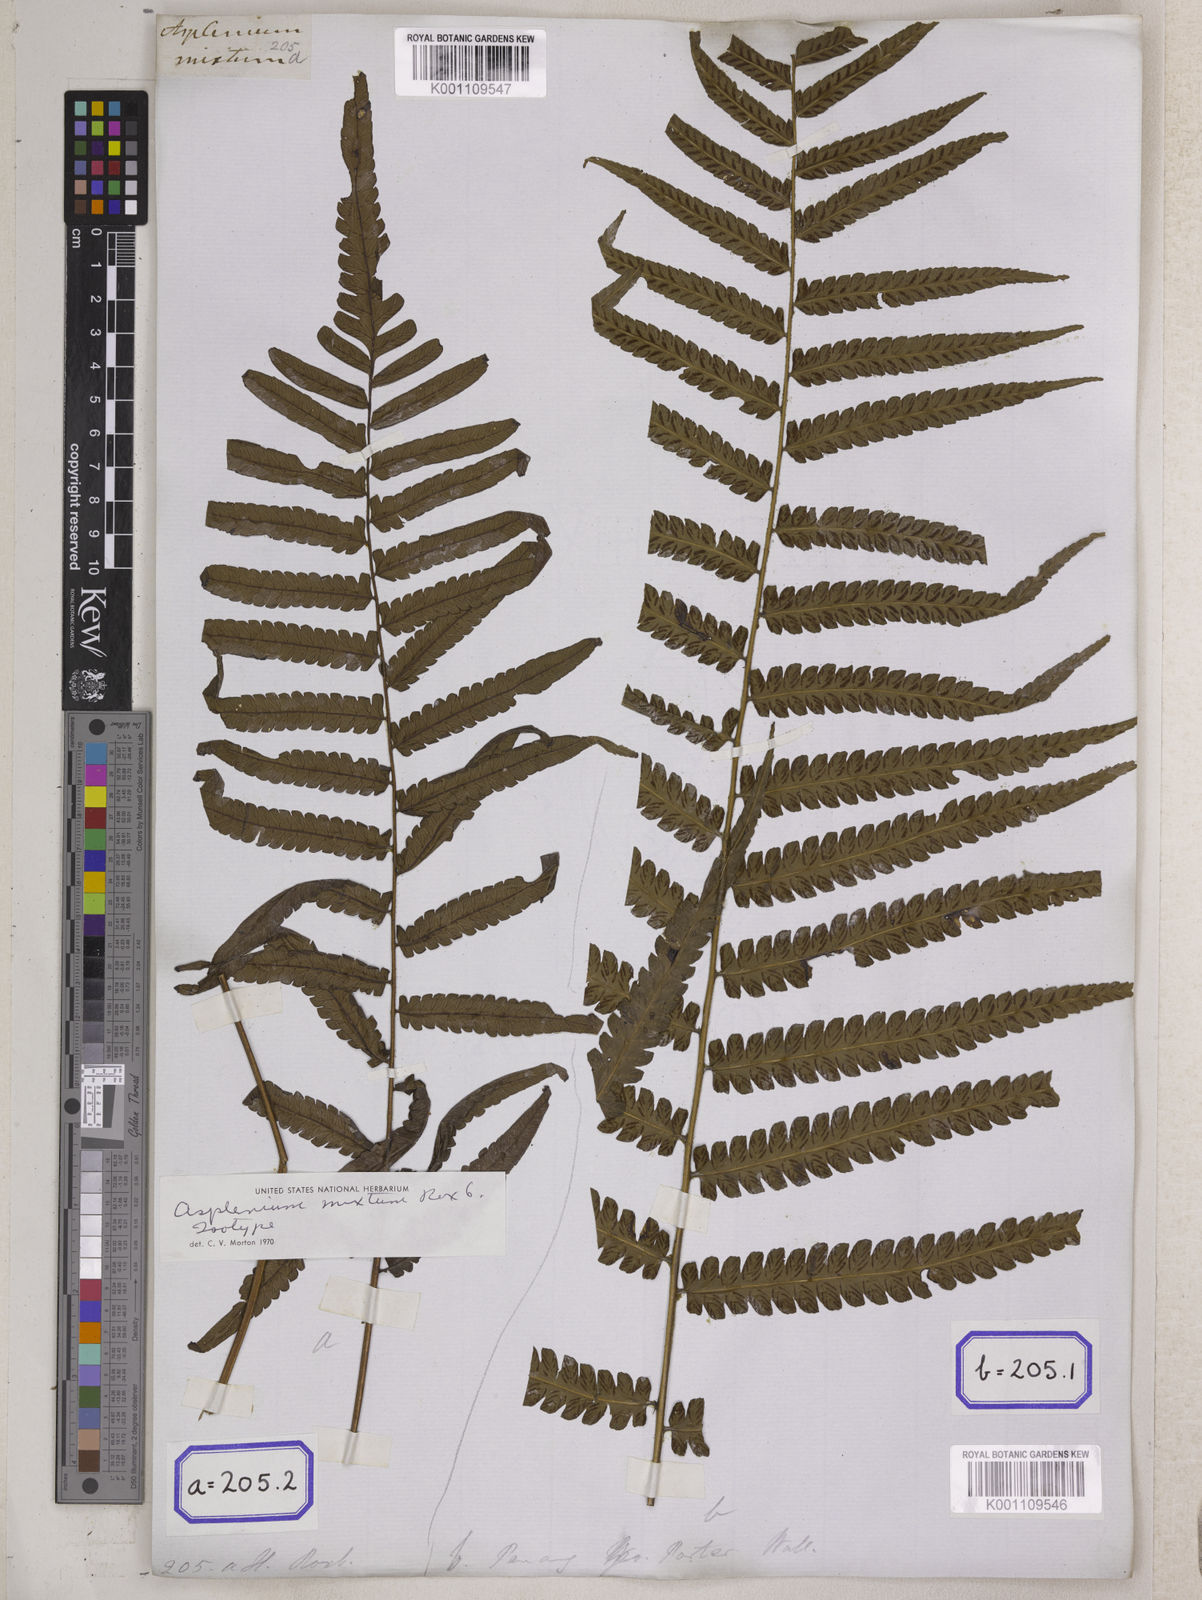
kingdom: Plantae
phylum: Tracheophyta
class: Polypodiopsida
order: Polypodiales
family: Athyriaceae
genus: Diplazium
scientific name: Diplazium schkuhrii
